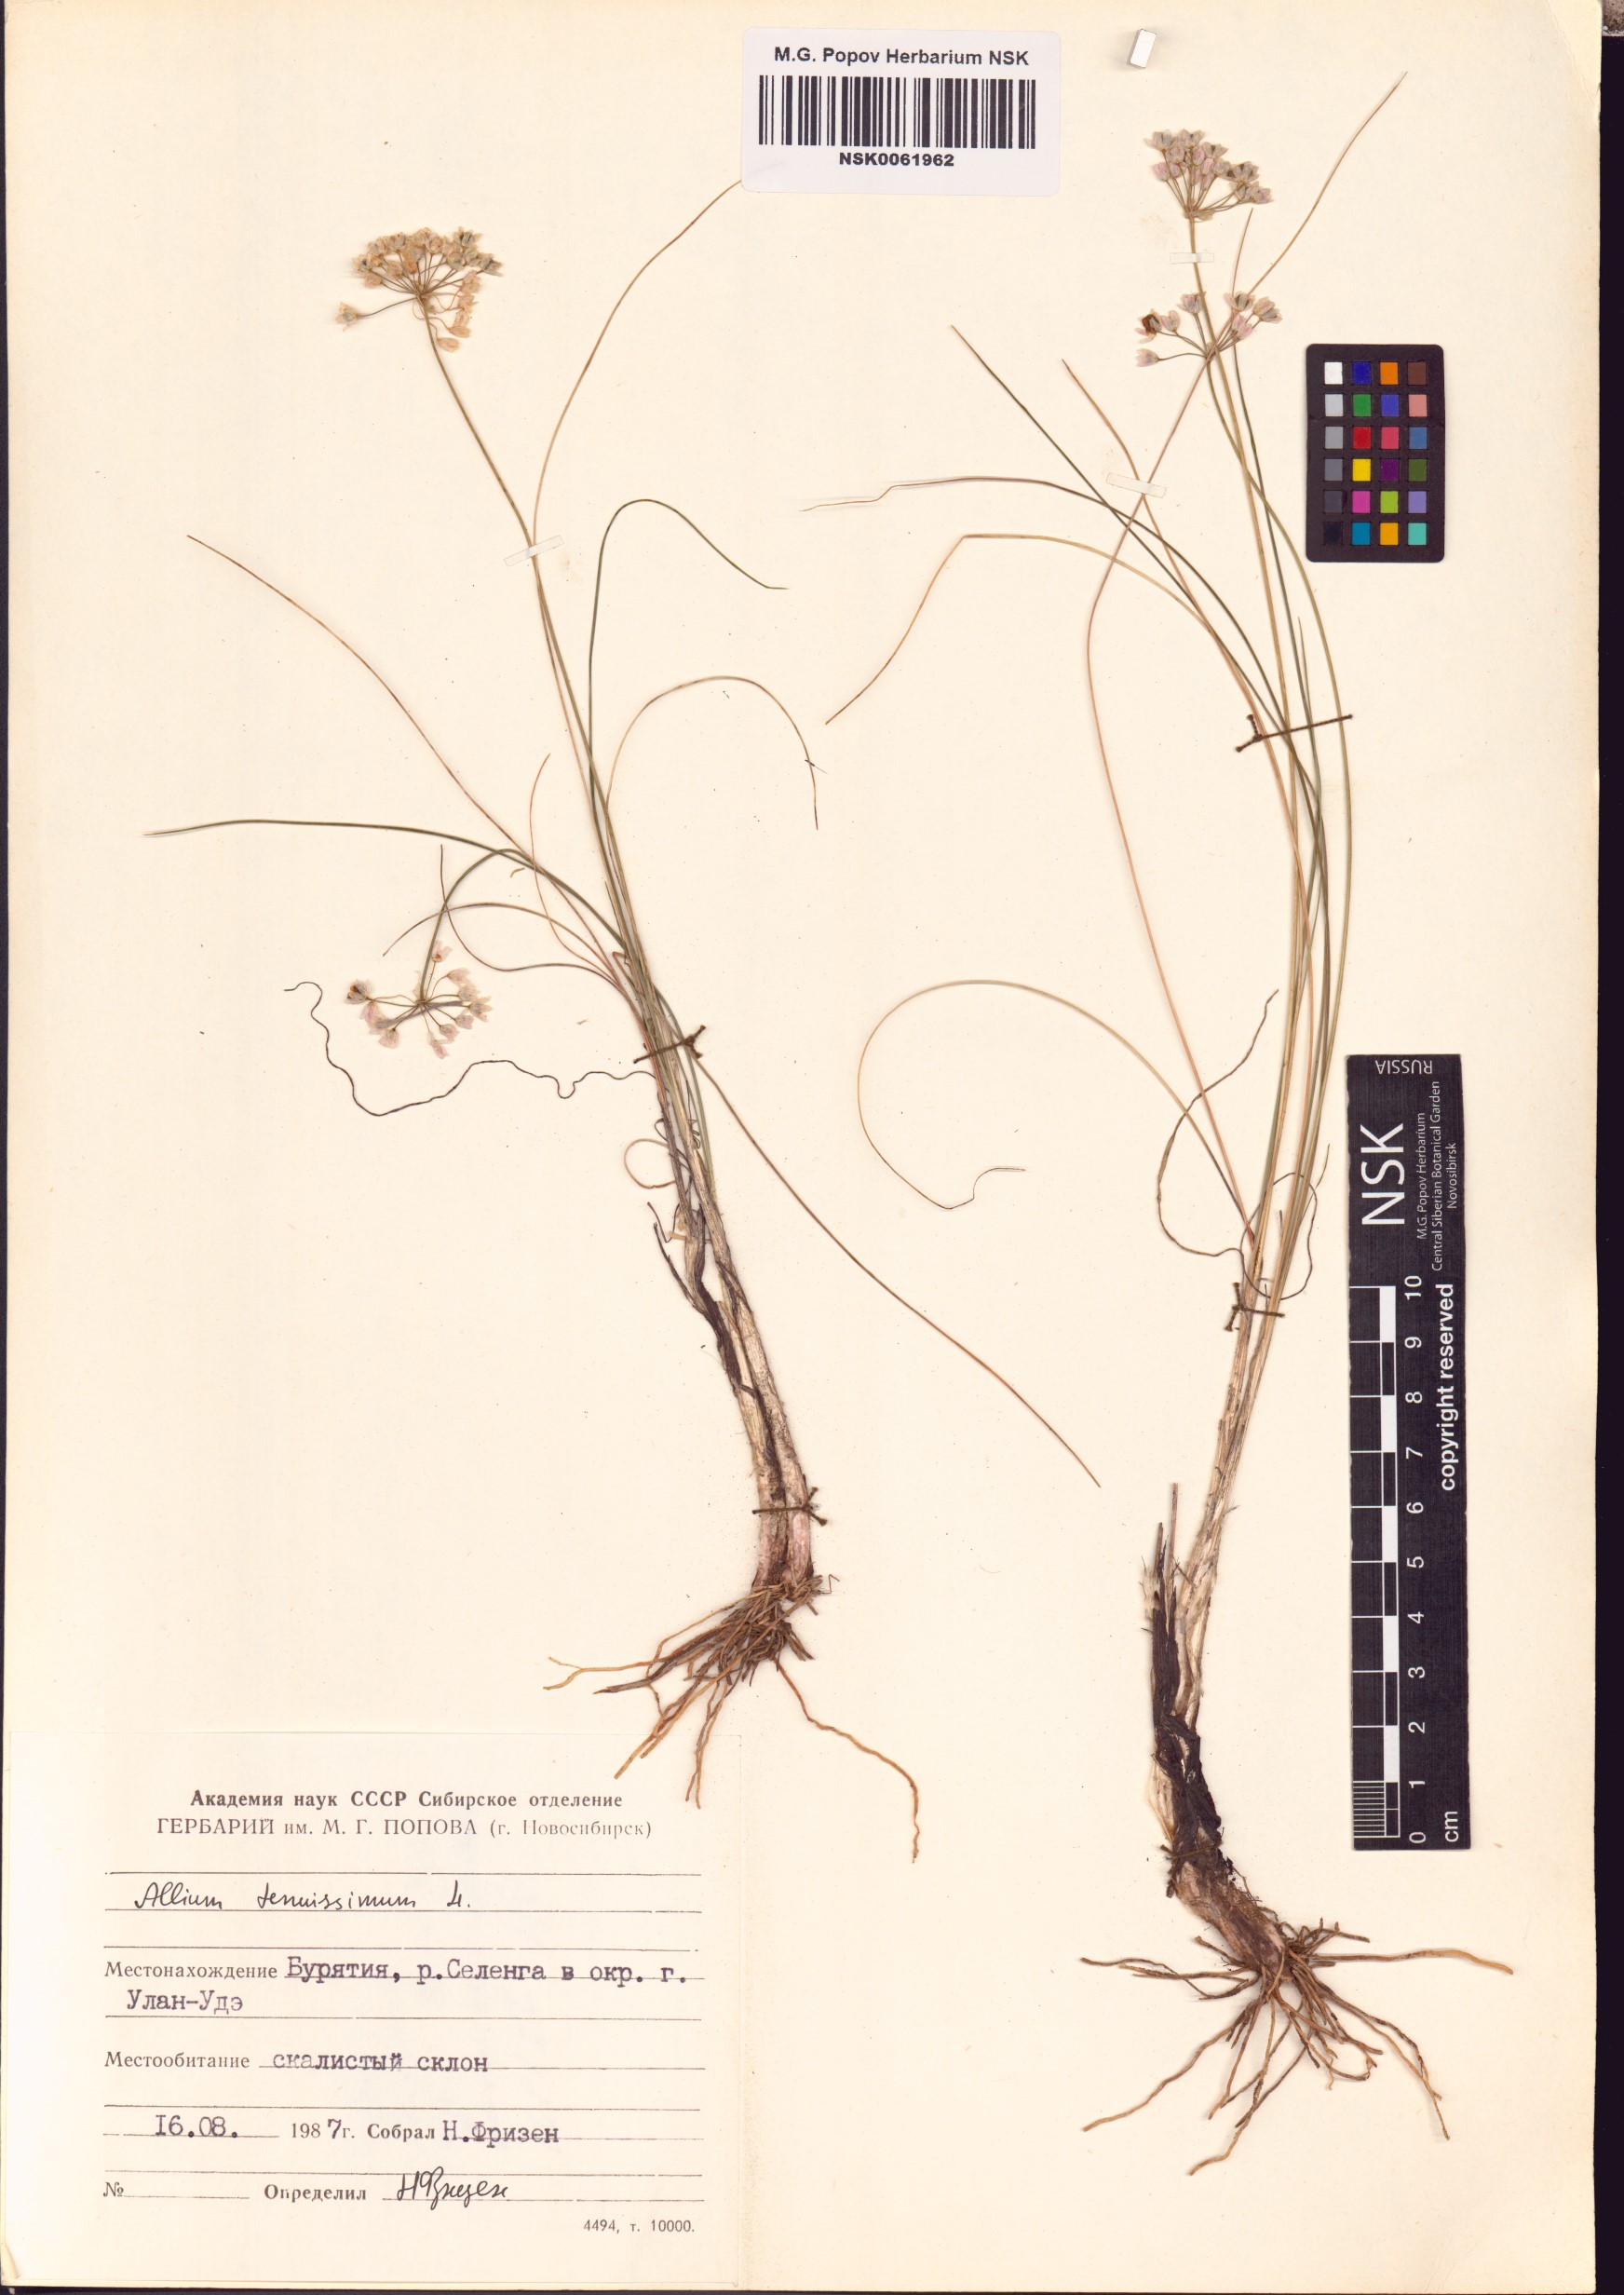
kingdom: Plantae
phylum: Tracheophyta
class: Liliopsida
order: Asparagales
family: Amaryllidaceae
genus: Allium
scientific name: Allium tenuissimum
